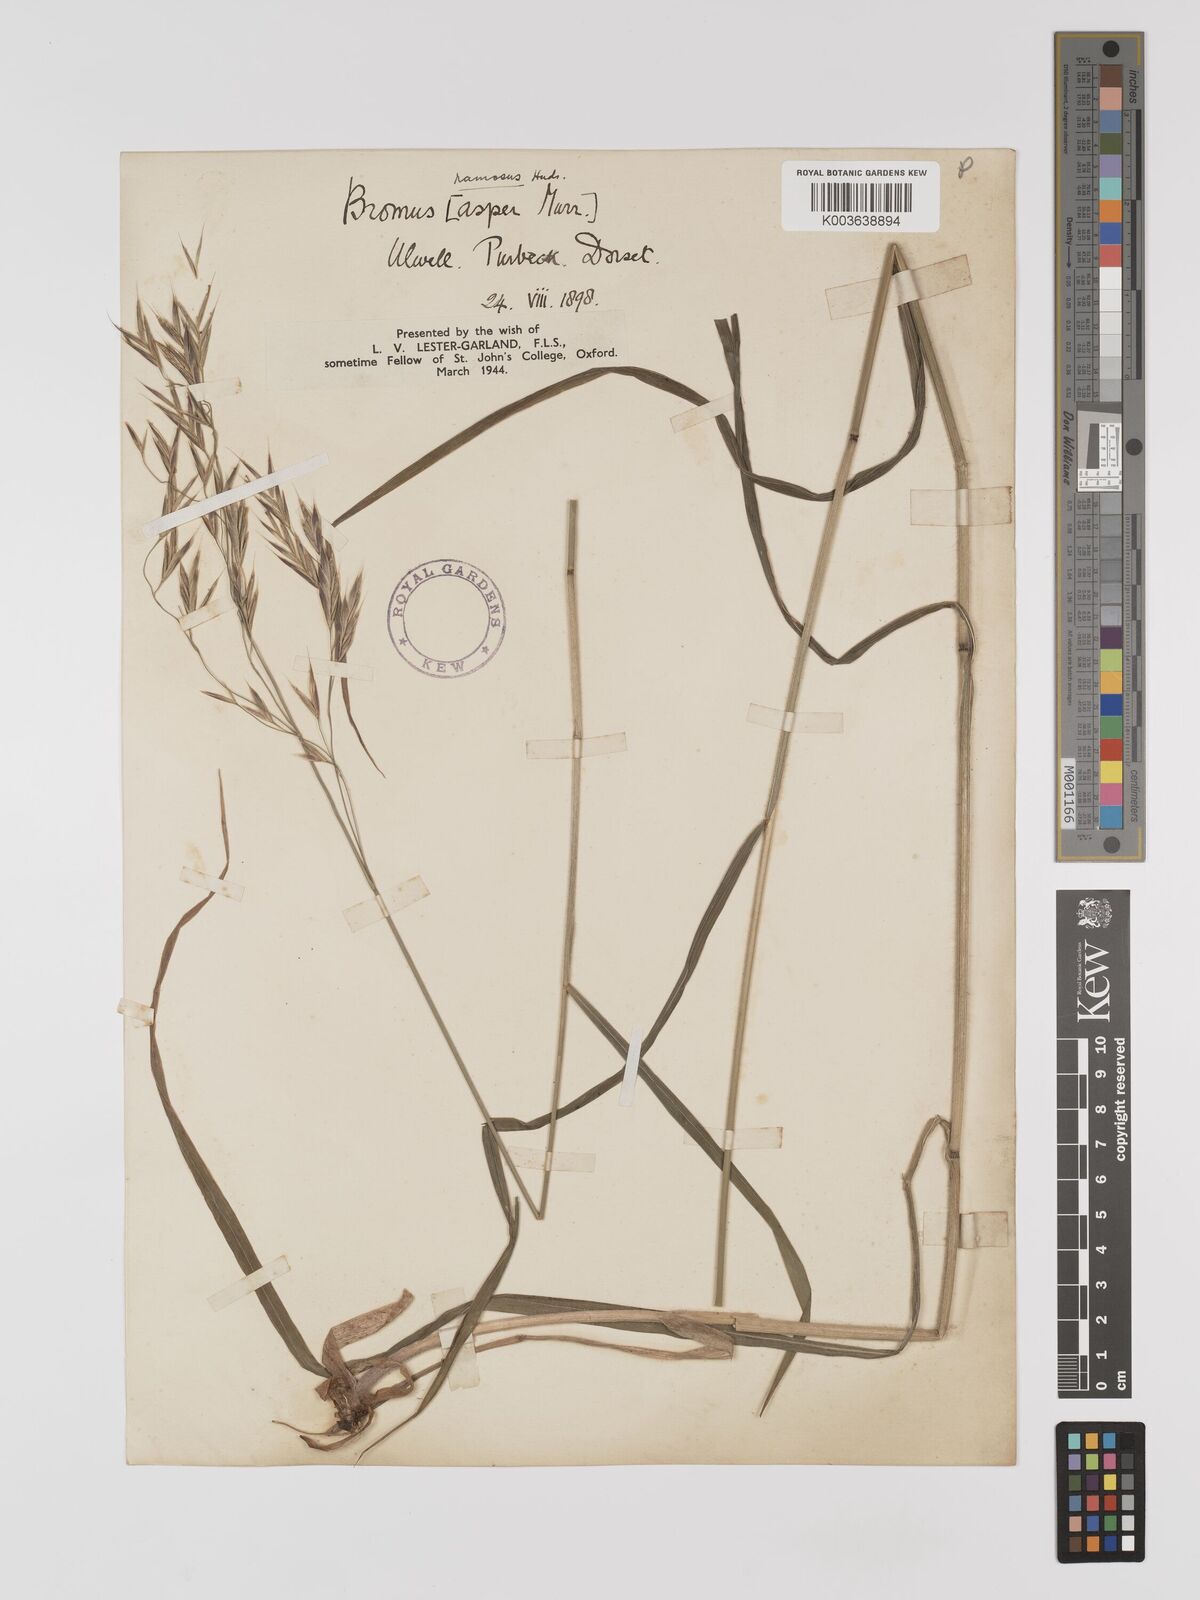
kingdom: Plantae
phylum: Tracheophyta
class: Liliopsida
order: Poales
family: Poaceae
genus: Brachypodium
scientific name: Brachypodium retusum
